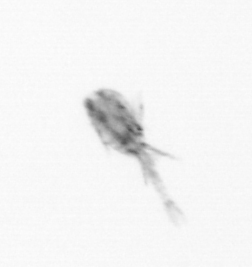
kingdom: Animalia
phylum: Arthropoda
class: Copepoda
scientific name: Copepoda
